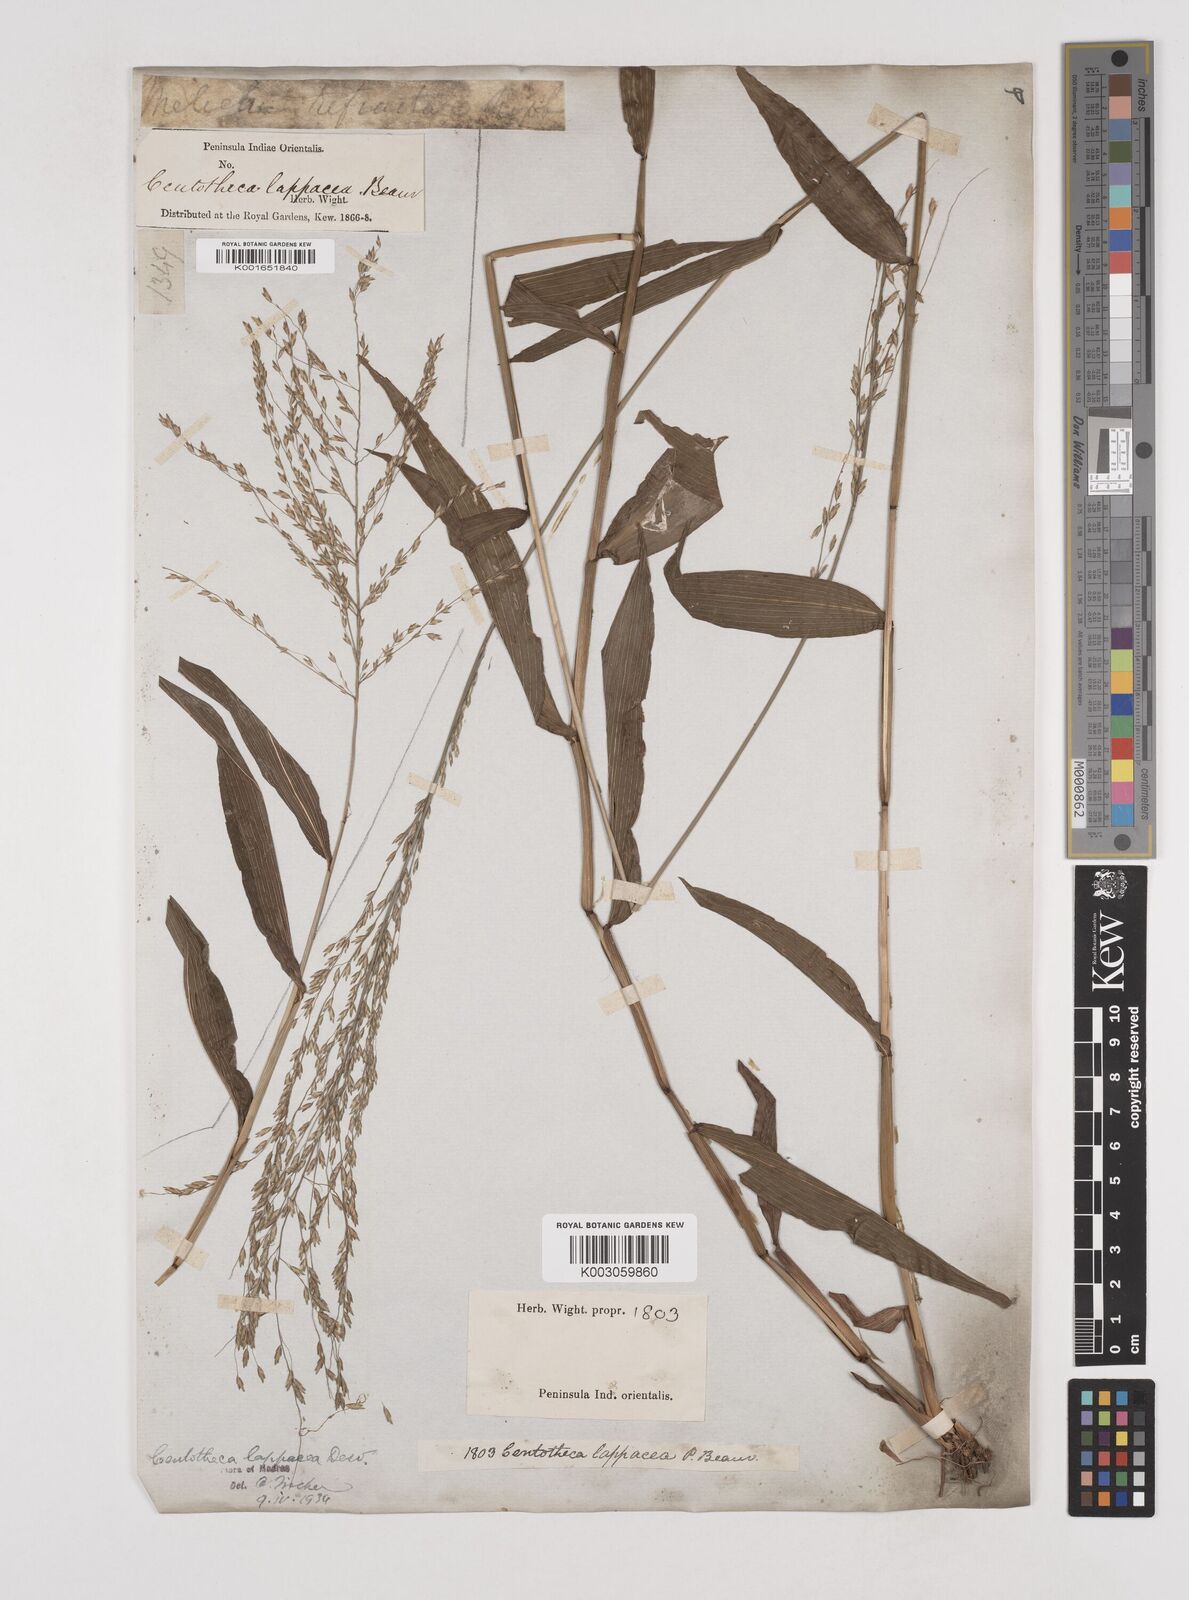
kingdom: Plantae
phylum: Tracheophyta
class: Liliopsida
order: Poales
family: Poaceae
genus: Centotheca
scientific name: Centotheca lappacea
